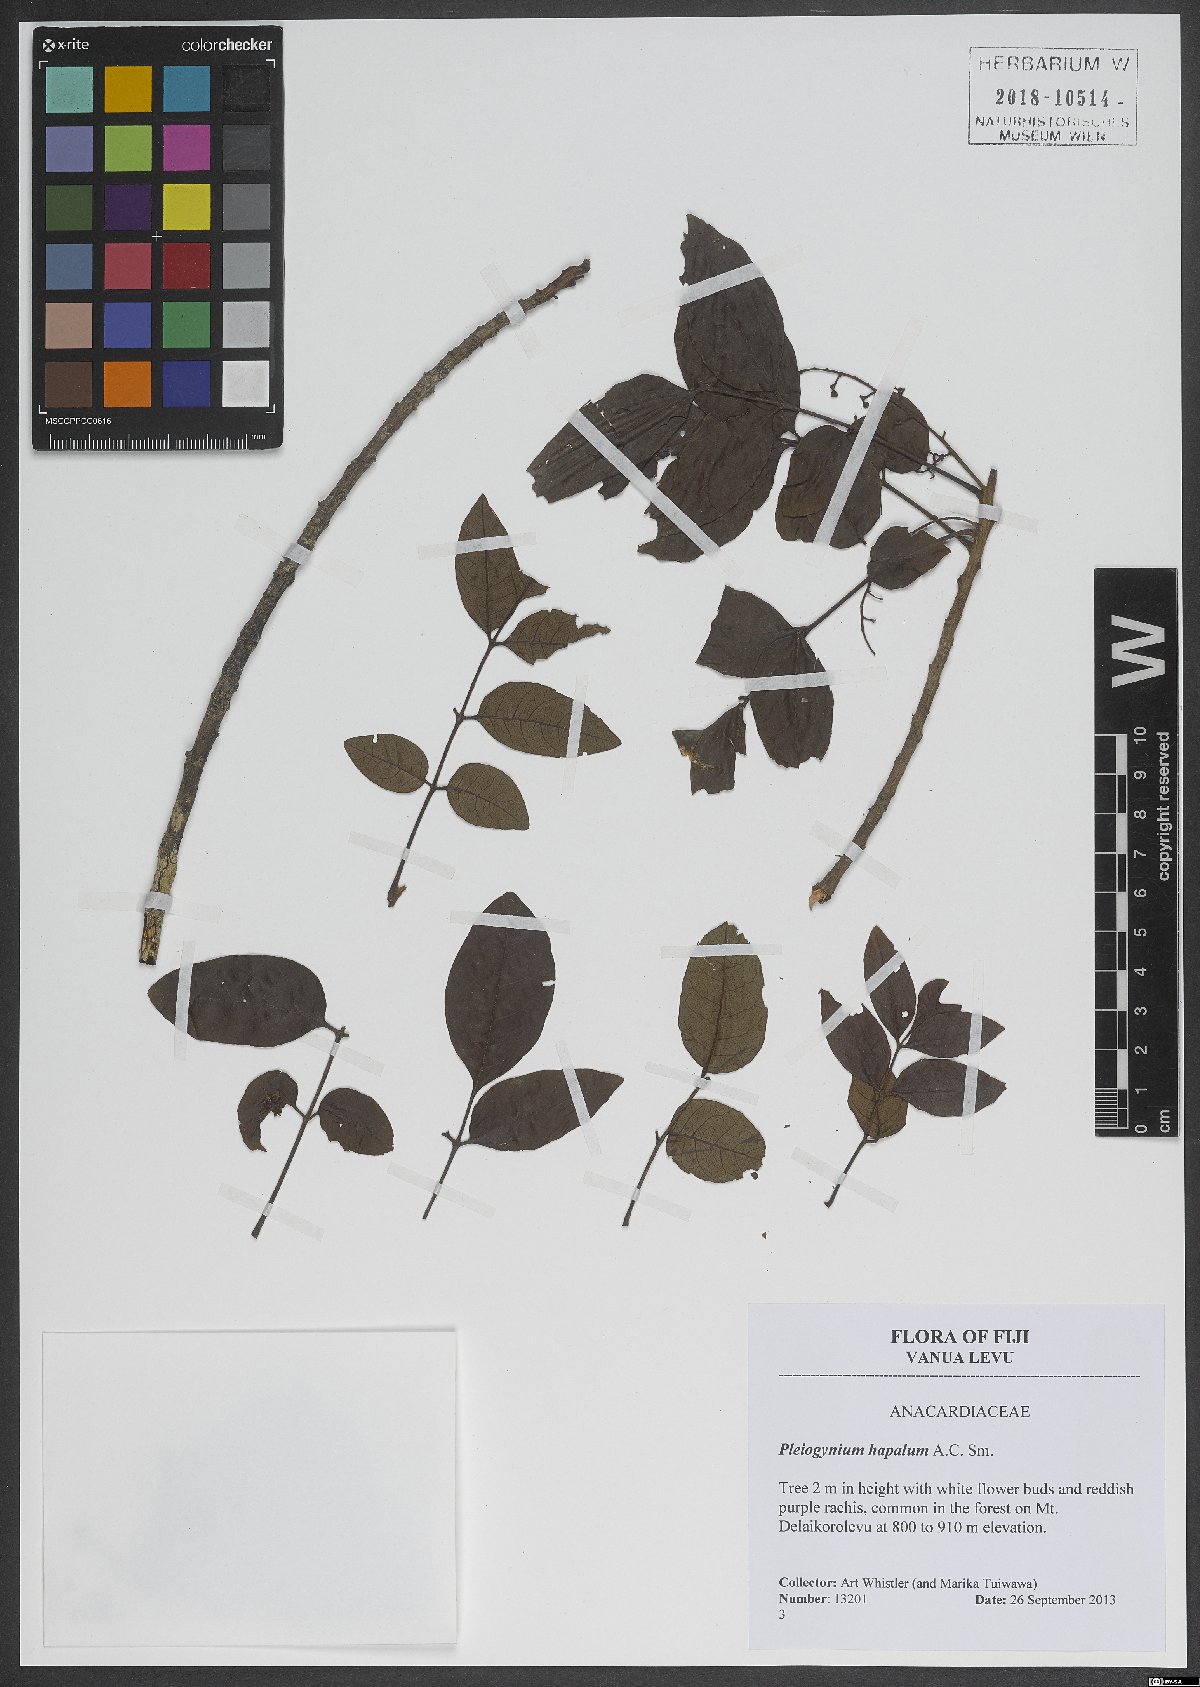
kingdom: Plantae
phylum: Tracheophyta
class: Magnoliopsida
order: Sapindales
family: Anacardiaceae
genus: Pleiogynium
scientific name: Pleiogynium hapalum
